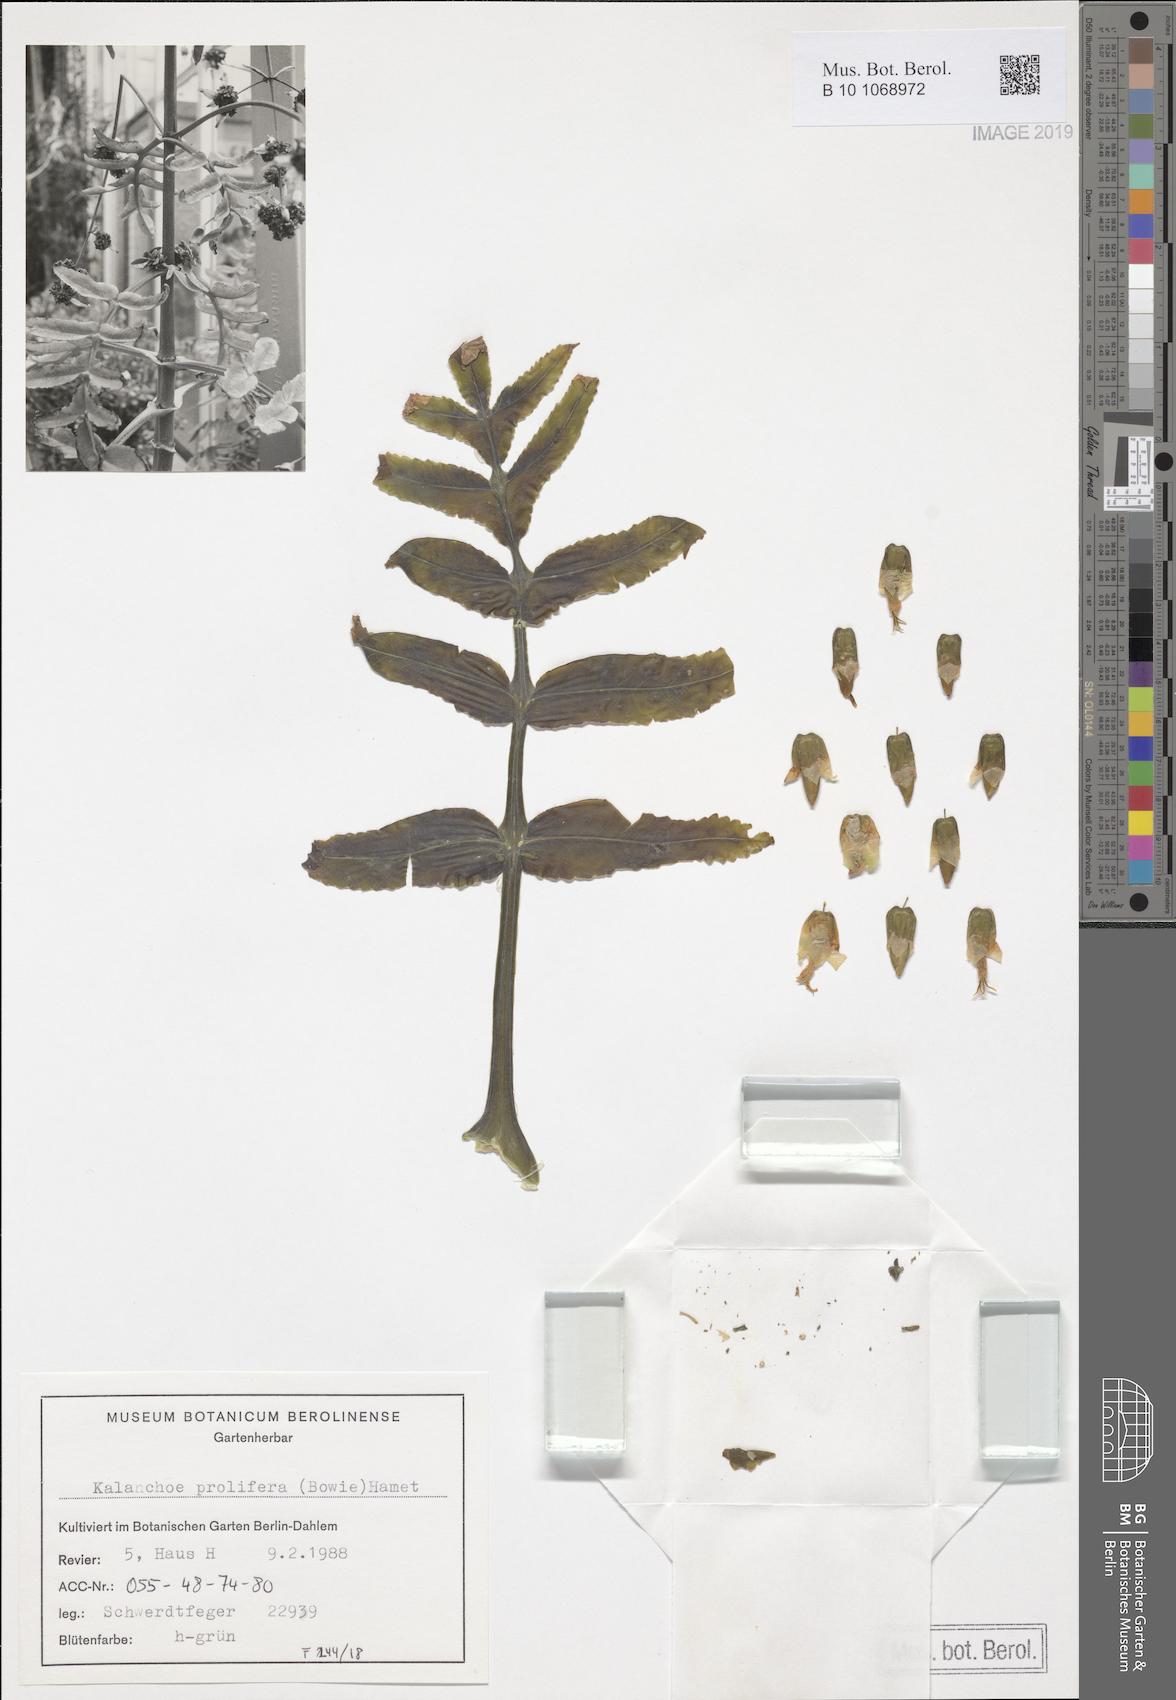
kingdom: Plantae
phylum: Tracheophyta
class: Magnoliopsida
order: Saxifragales
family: Crassulaceae
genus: Kalanchoe
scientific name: Kalanchoe prolifera
